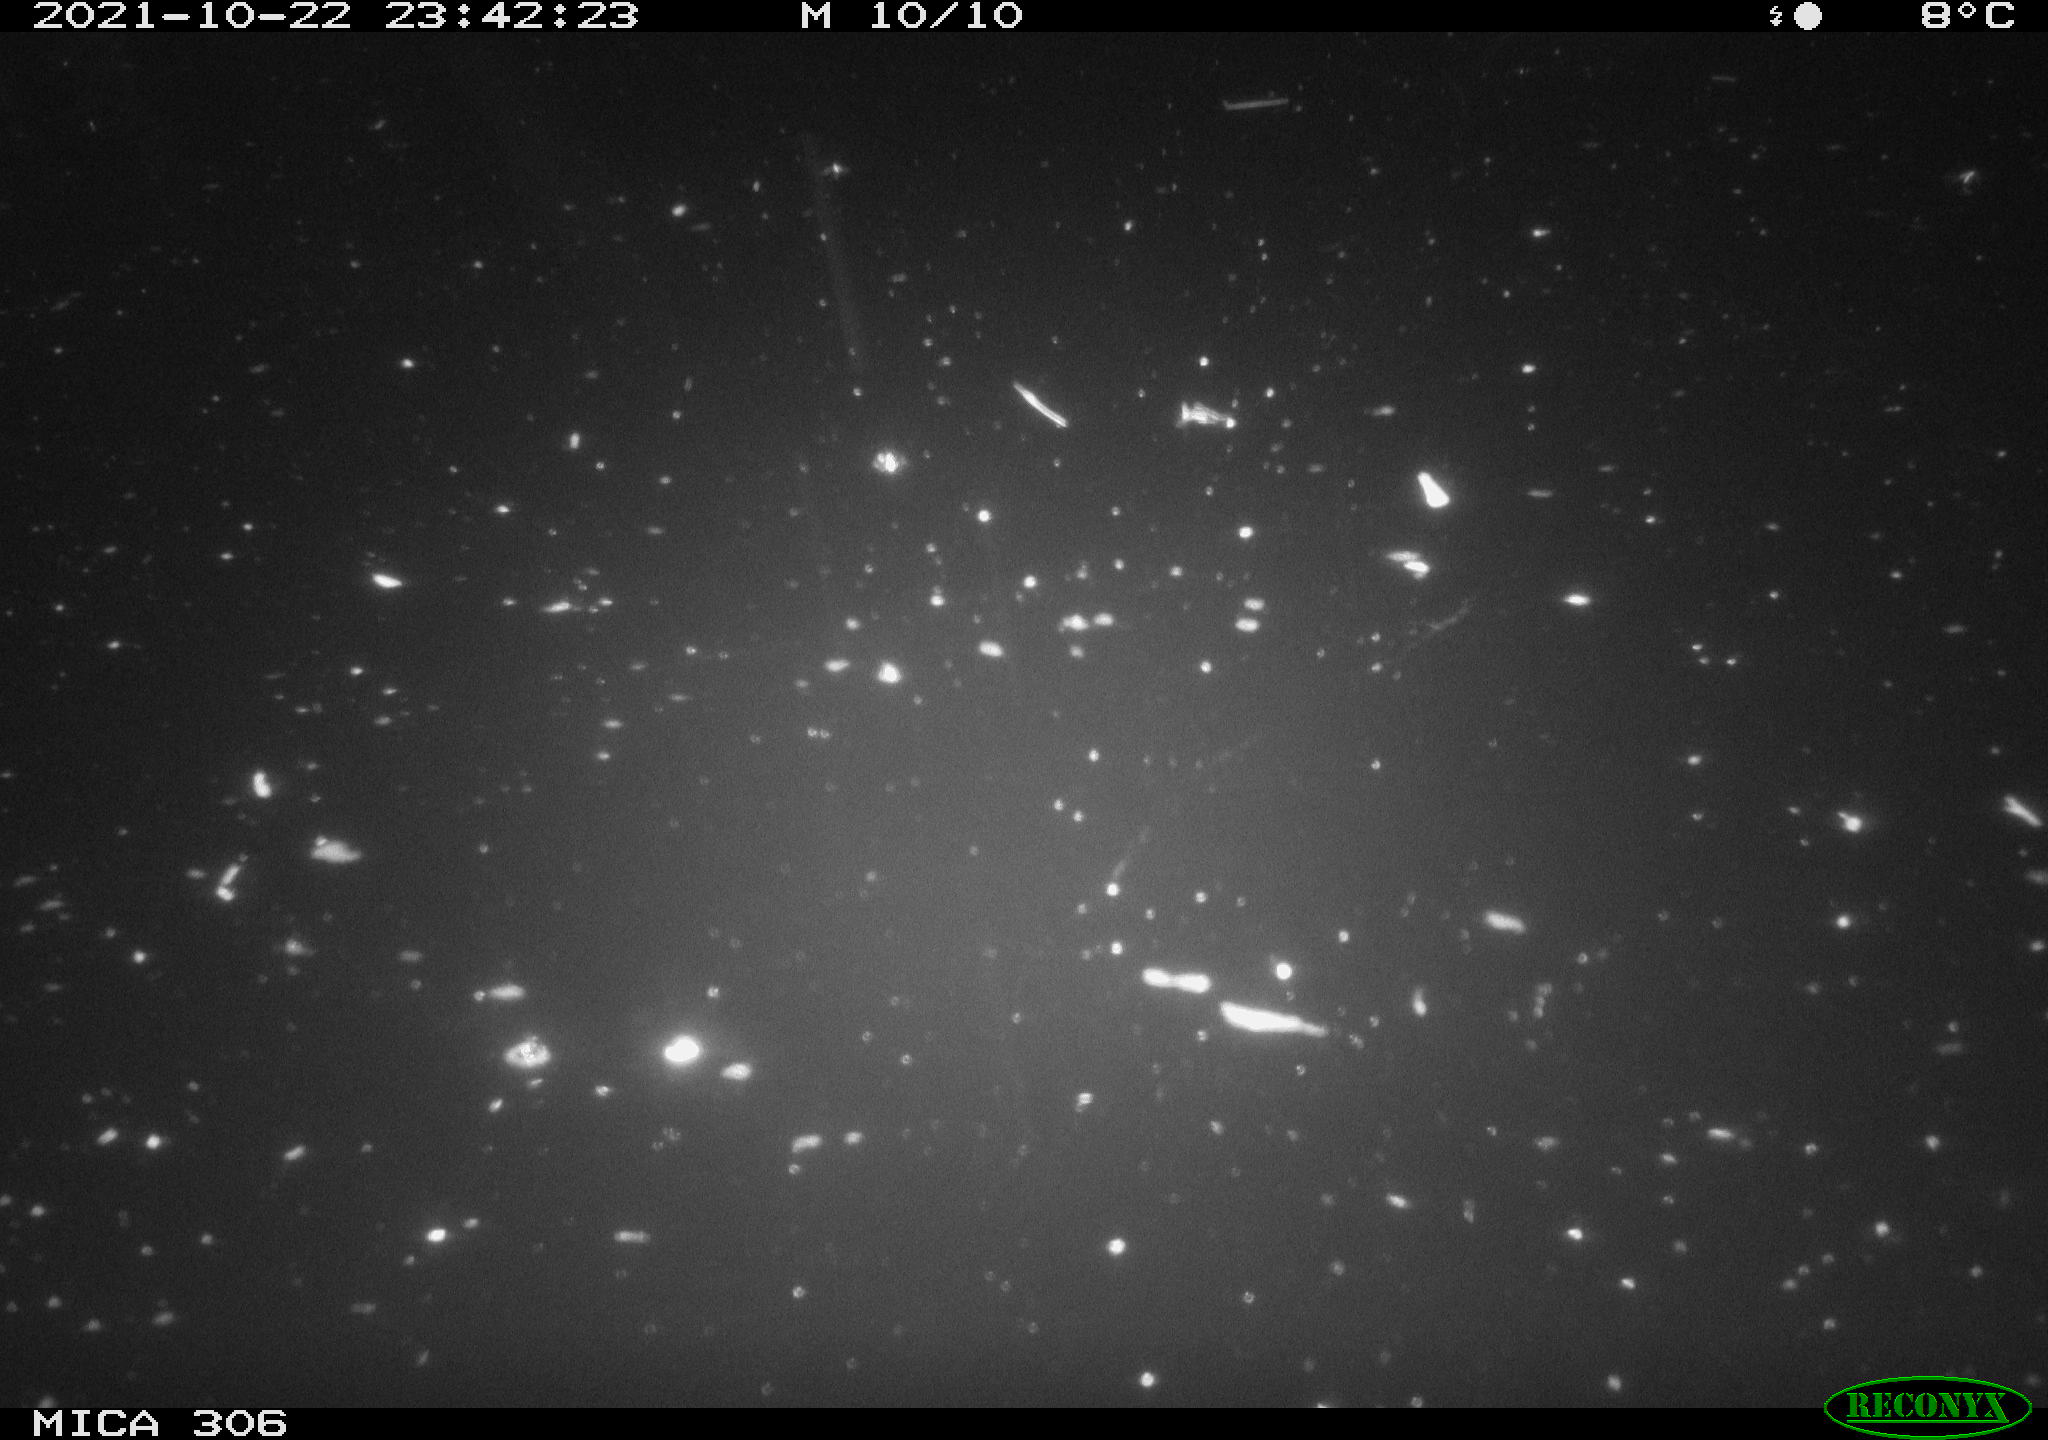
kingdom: Animalia
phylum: Chordata
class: Mammalia
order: Rodentia
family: Muridae
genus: Rattus
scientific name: Rattus norvegicus
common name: Brown rat
